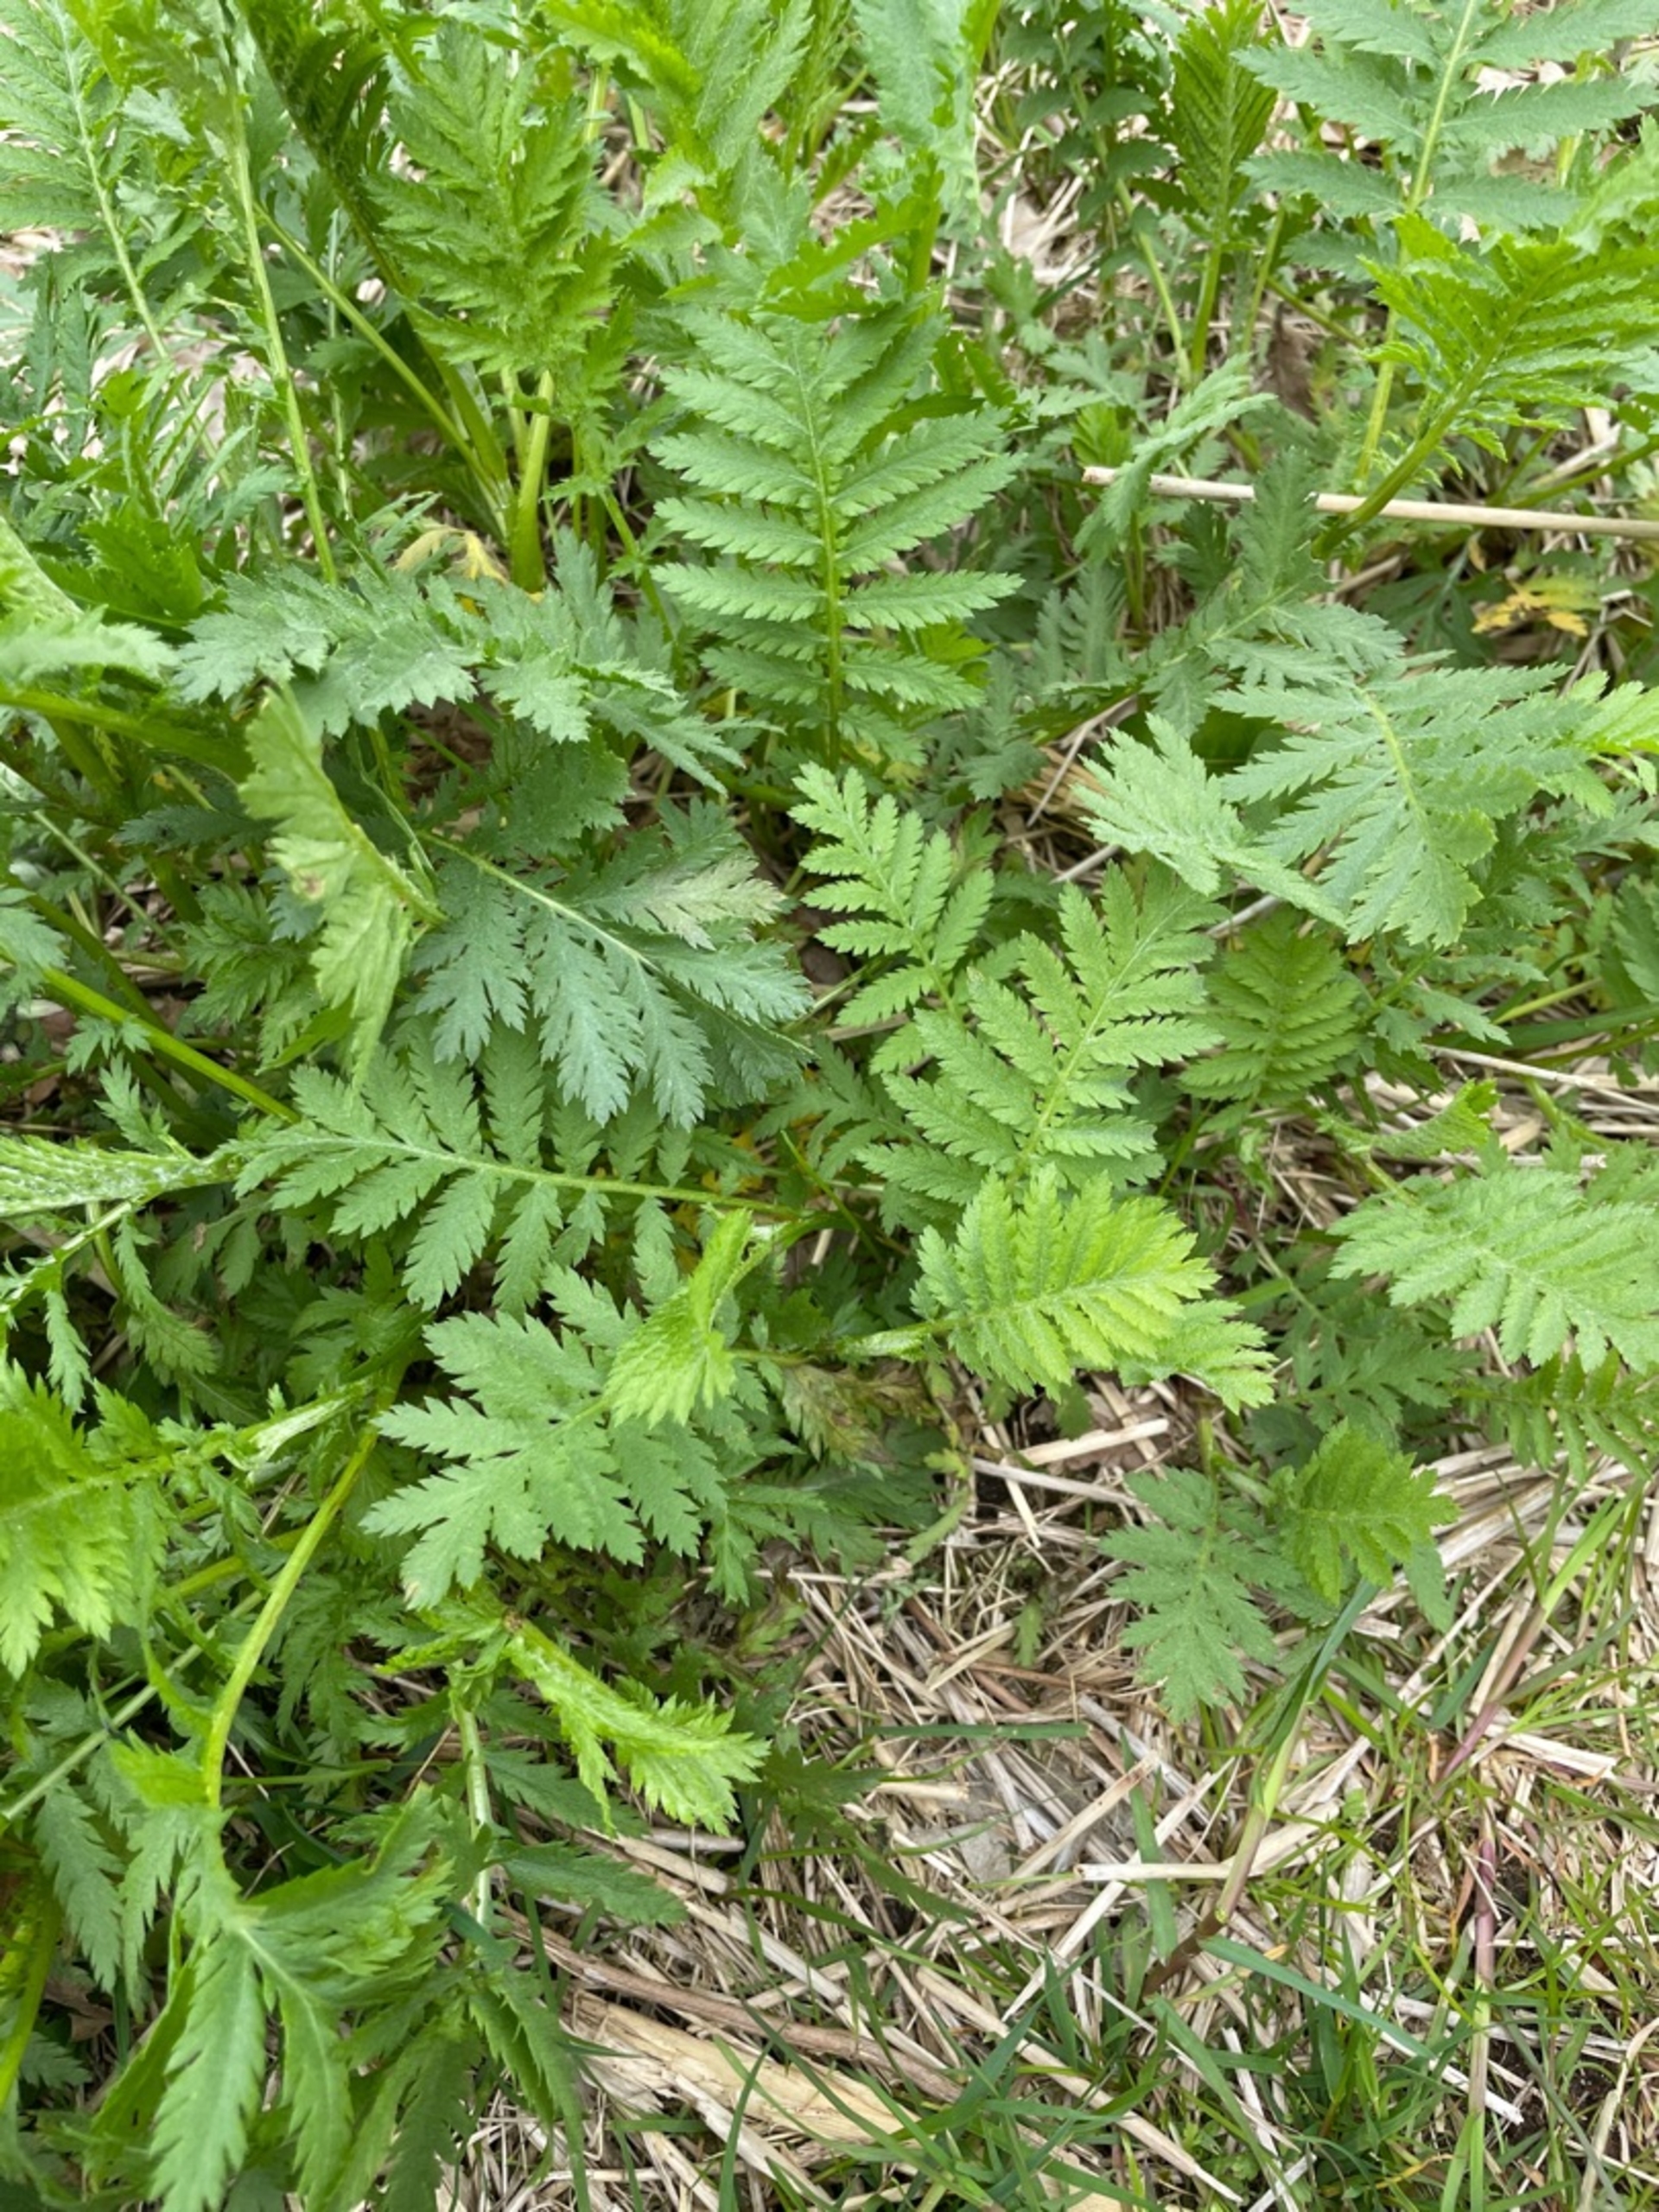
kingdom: Plantae
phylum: Tracheophyta
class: Magnoliopsida
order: Asterales
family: Asteraceae
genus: Tanacetum
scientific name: Tanacetum vulgare
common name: Rejnfan
